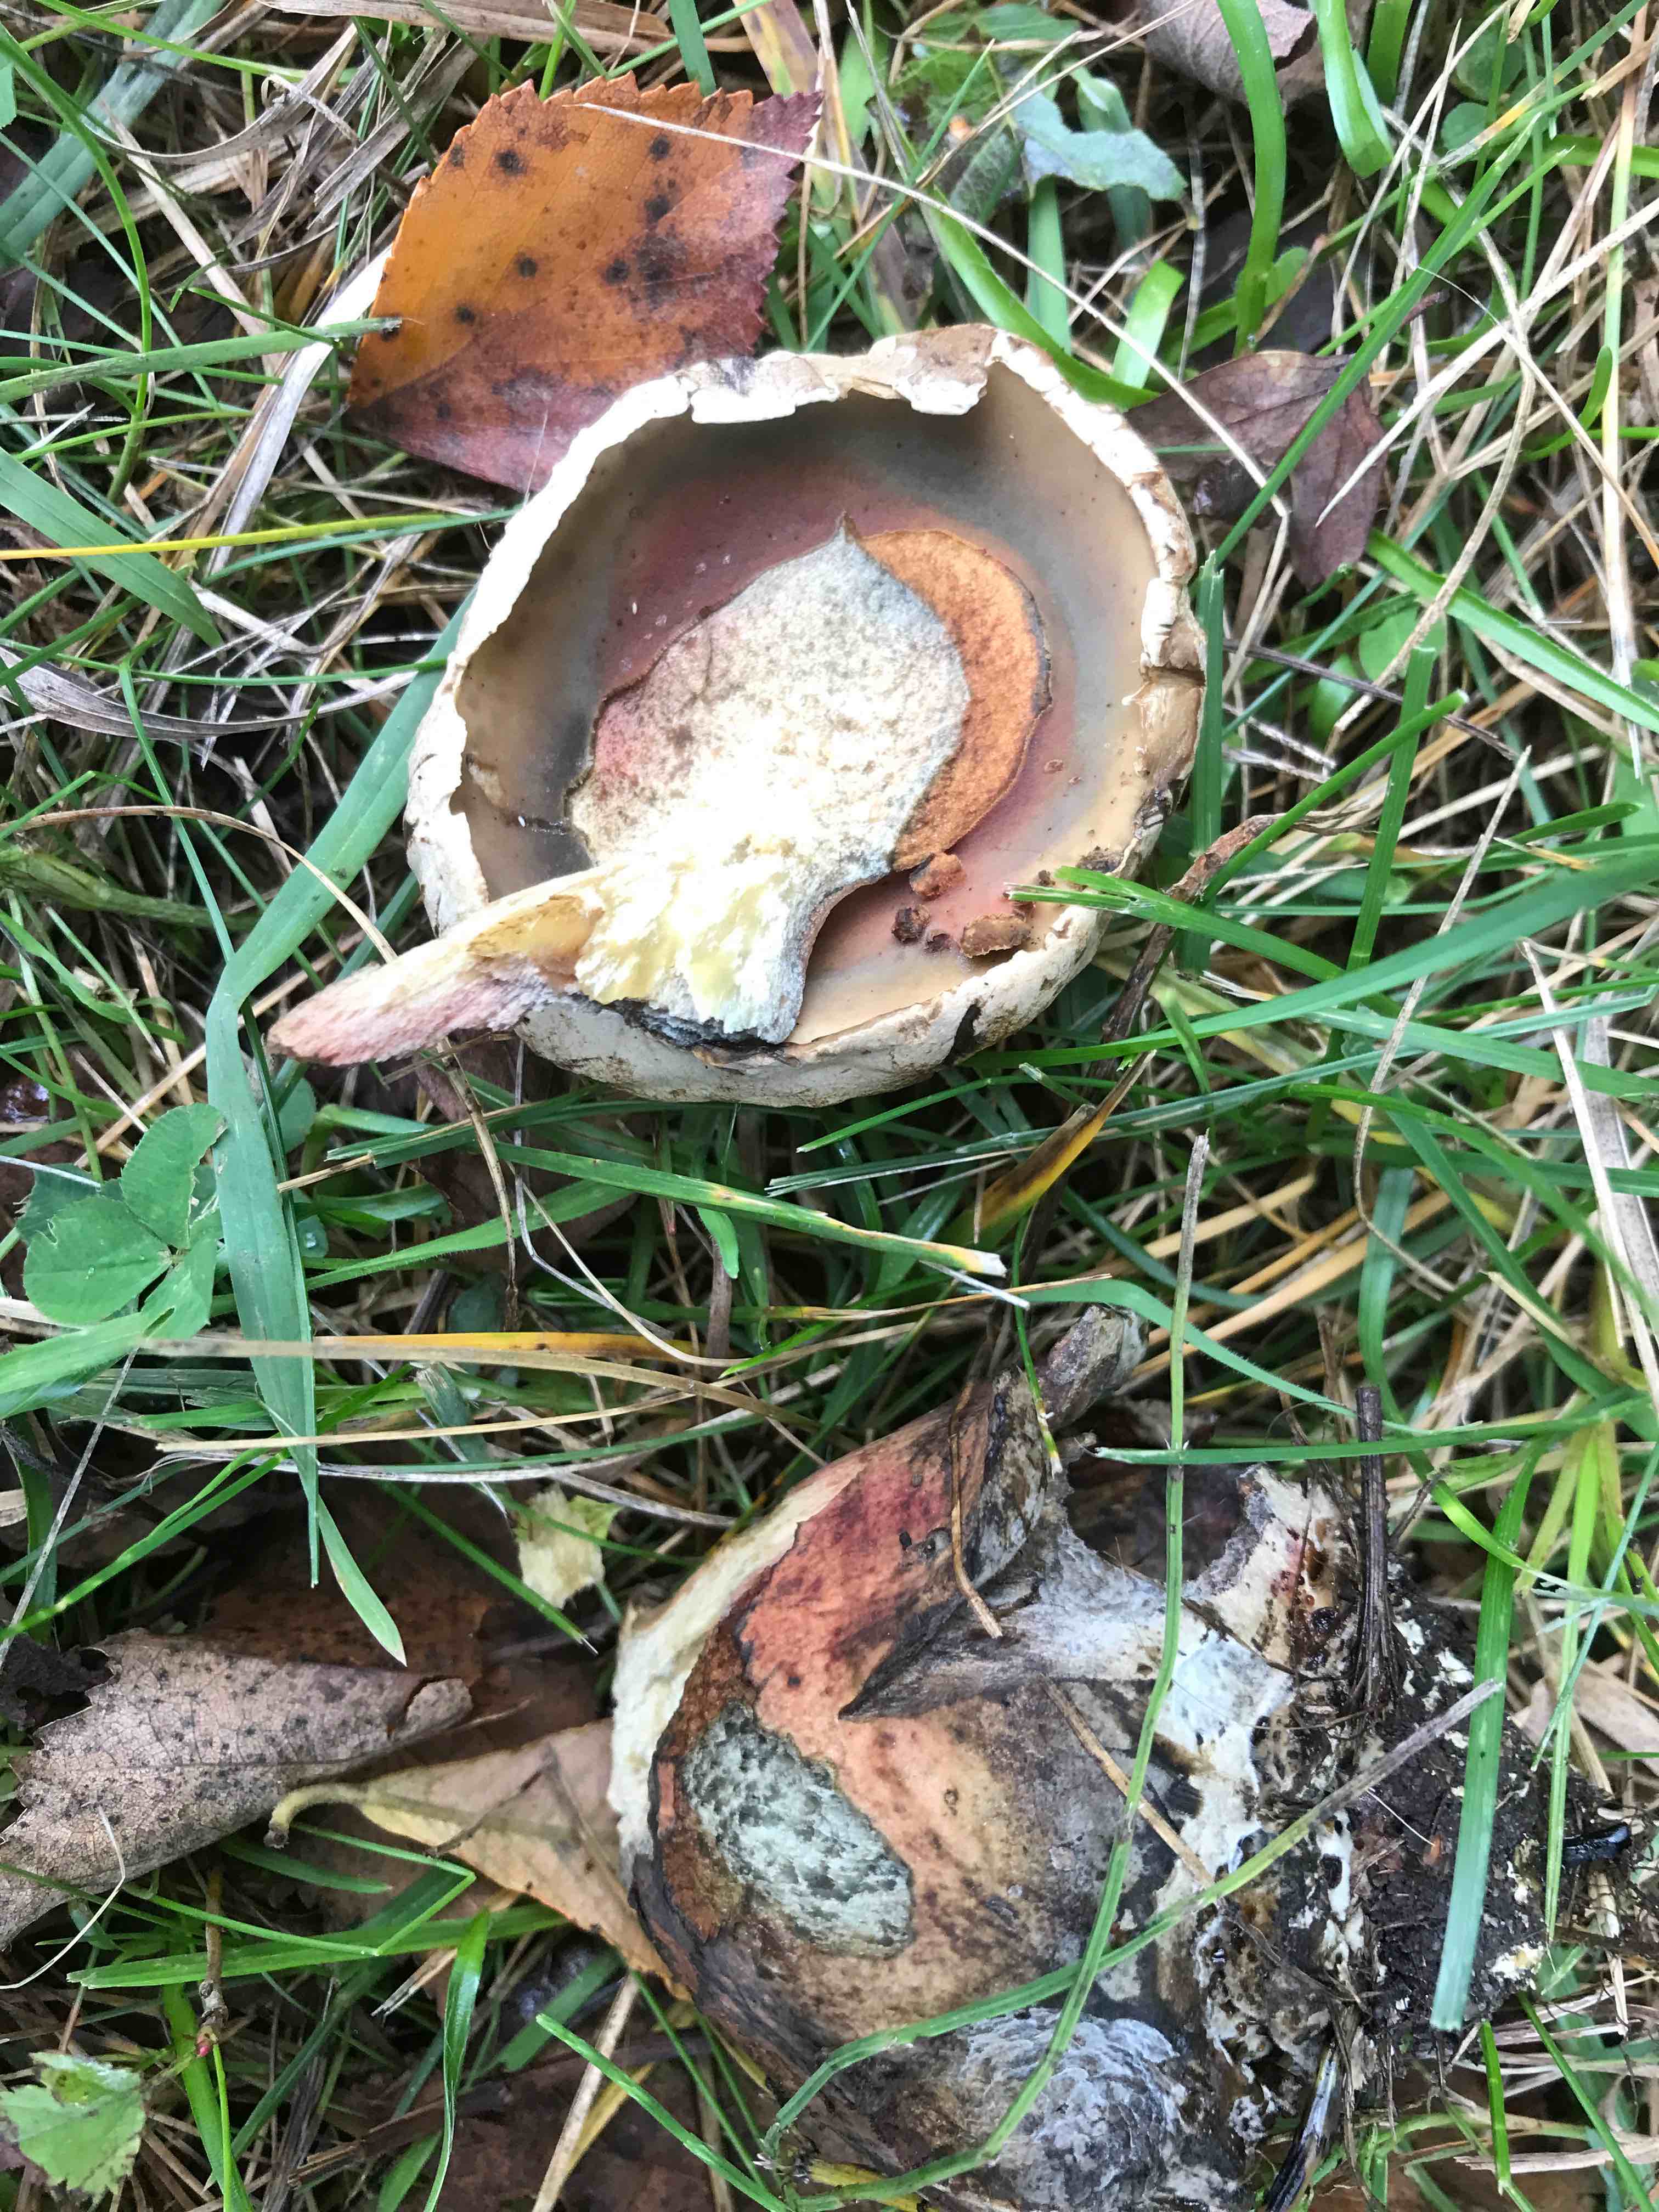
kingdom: Fungi
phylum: Basidiomycota
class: Agaricomycetes
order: Boletales
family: Boletaceae
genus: Suillellus
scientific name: Suillellus luridus
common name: netstokket indigorørhat
